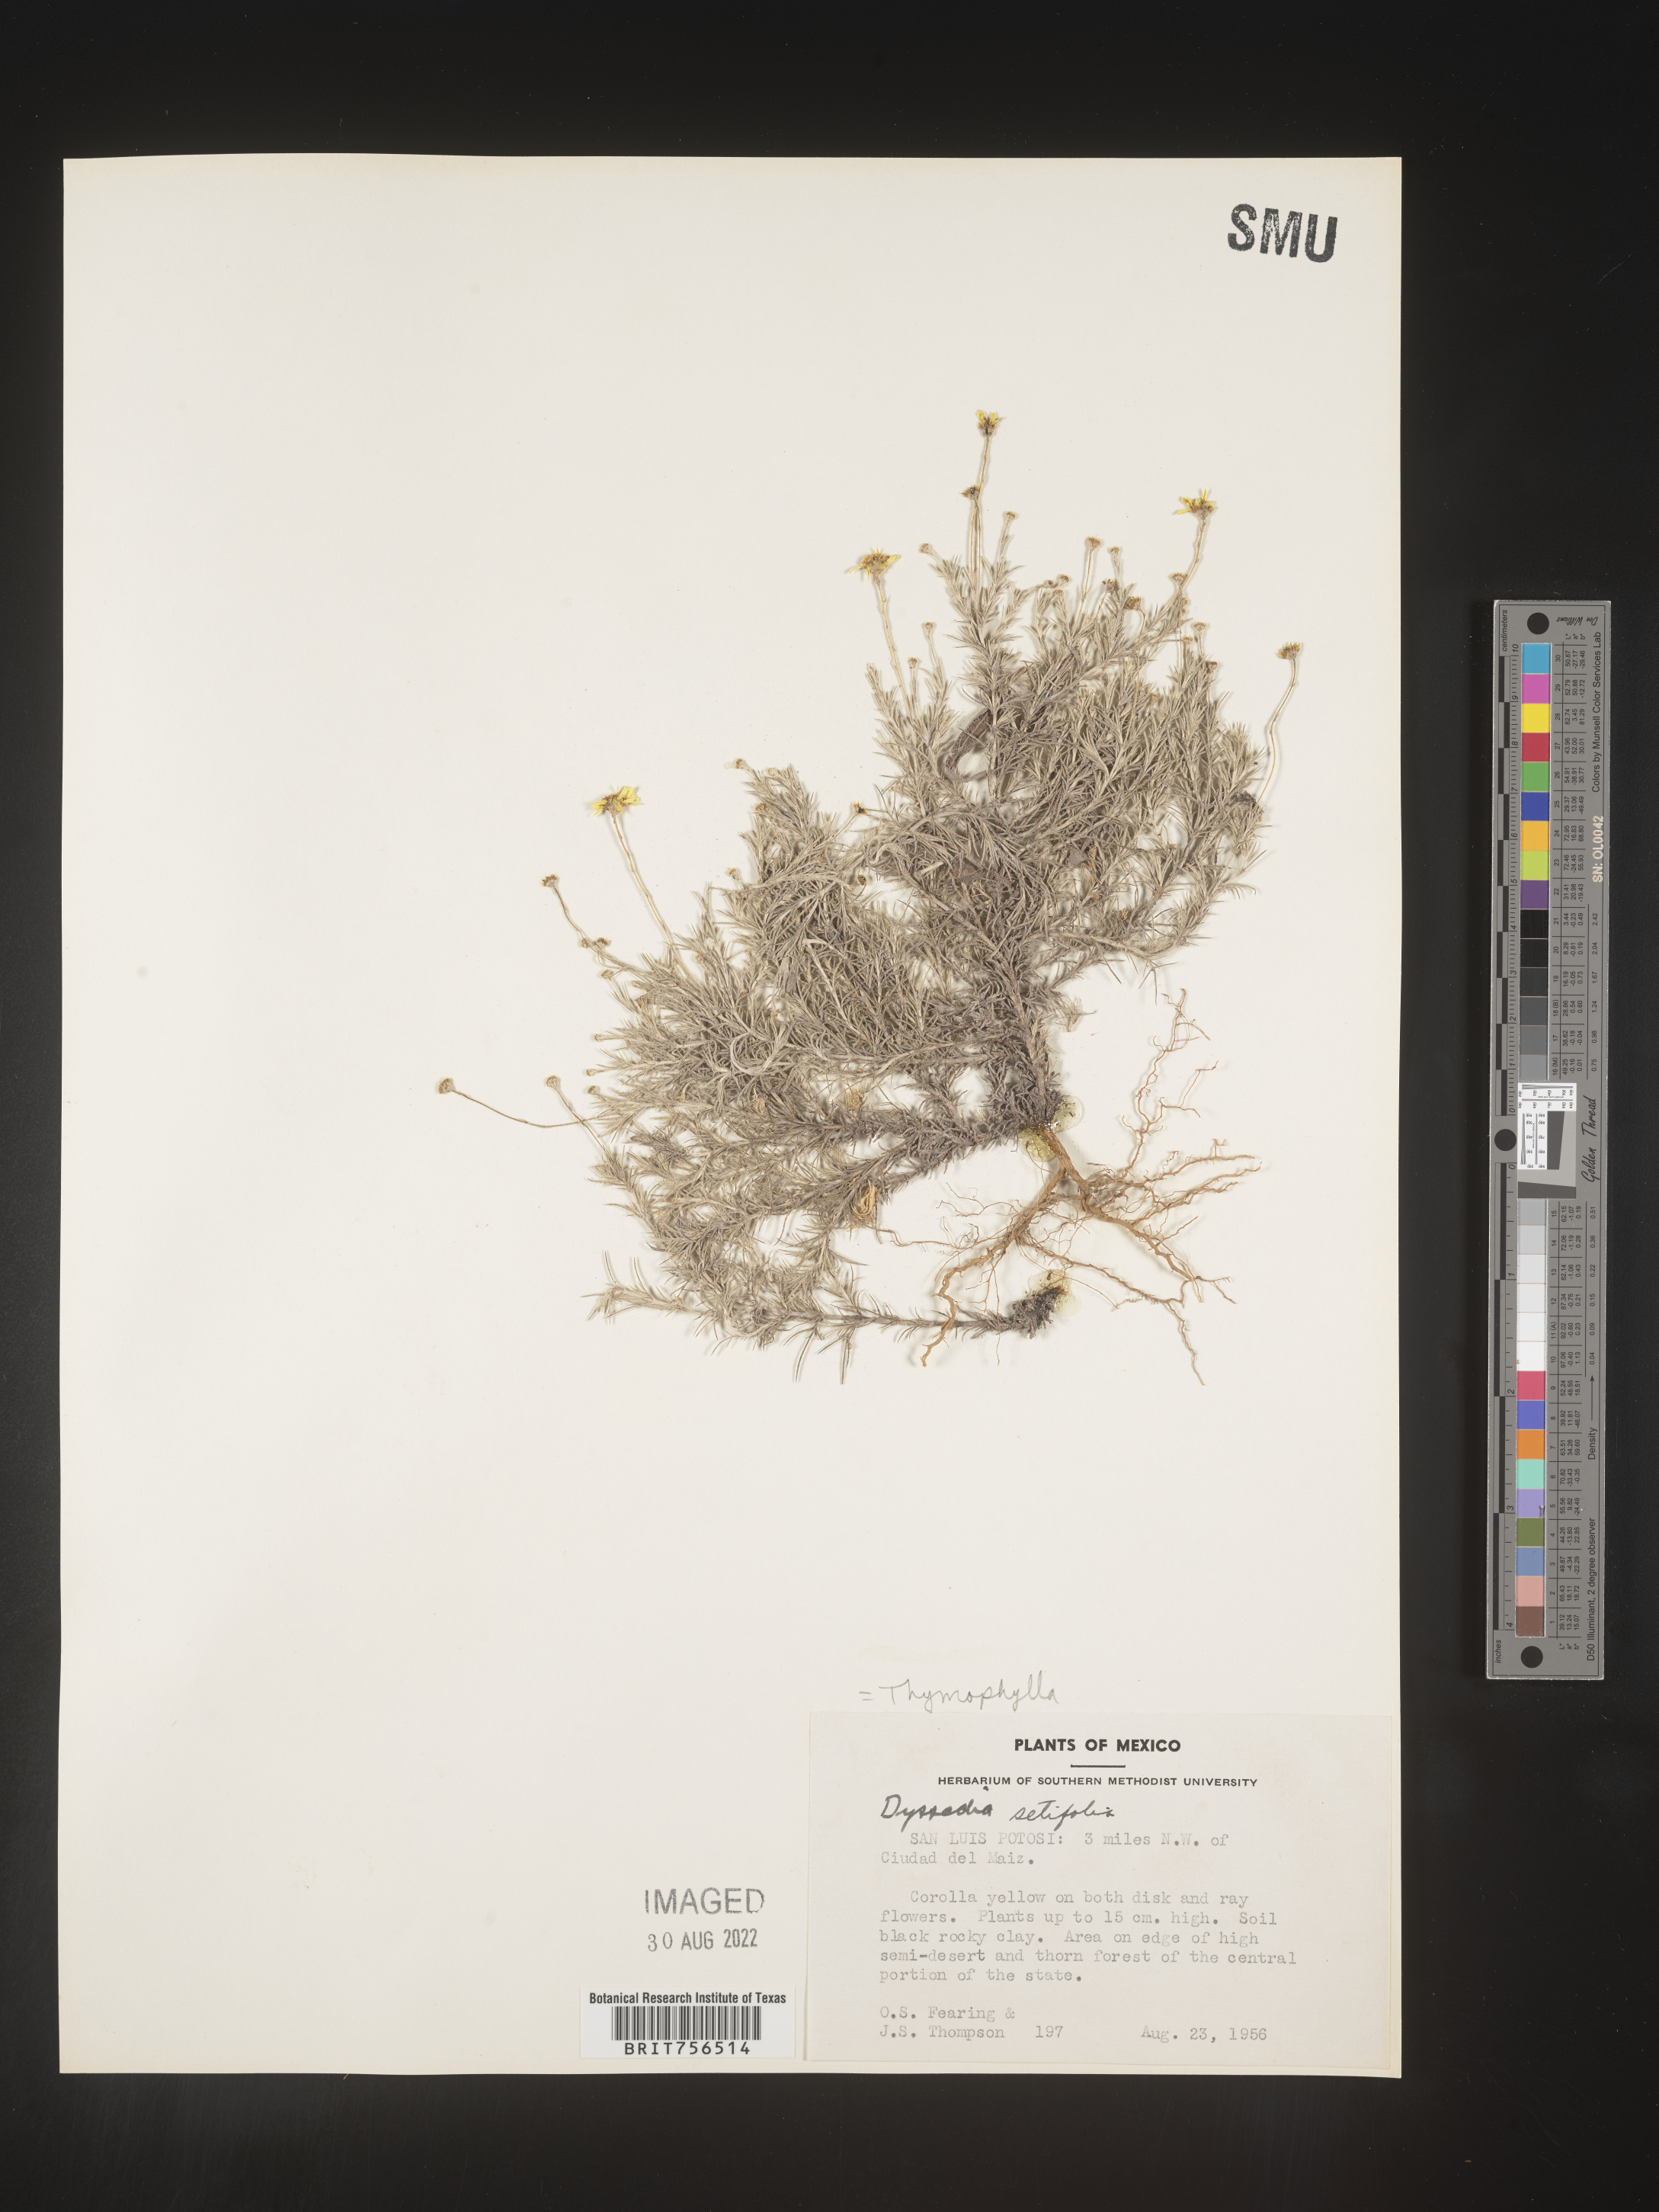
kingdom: Plantae
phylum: Tracheophyta
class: Magnoliopsida
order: Asterales
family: Asteraceae
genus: Thymophylla
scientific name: Thymophylla setifolia
